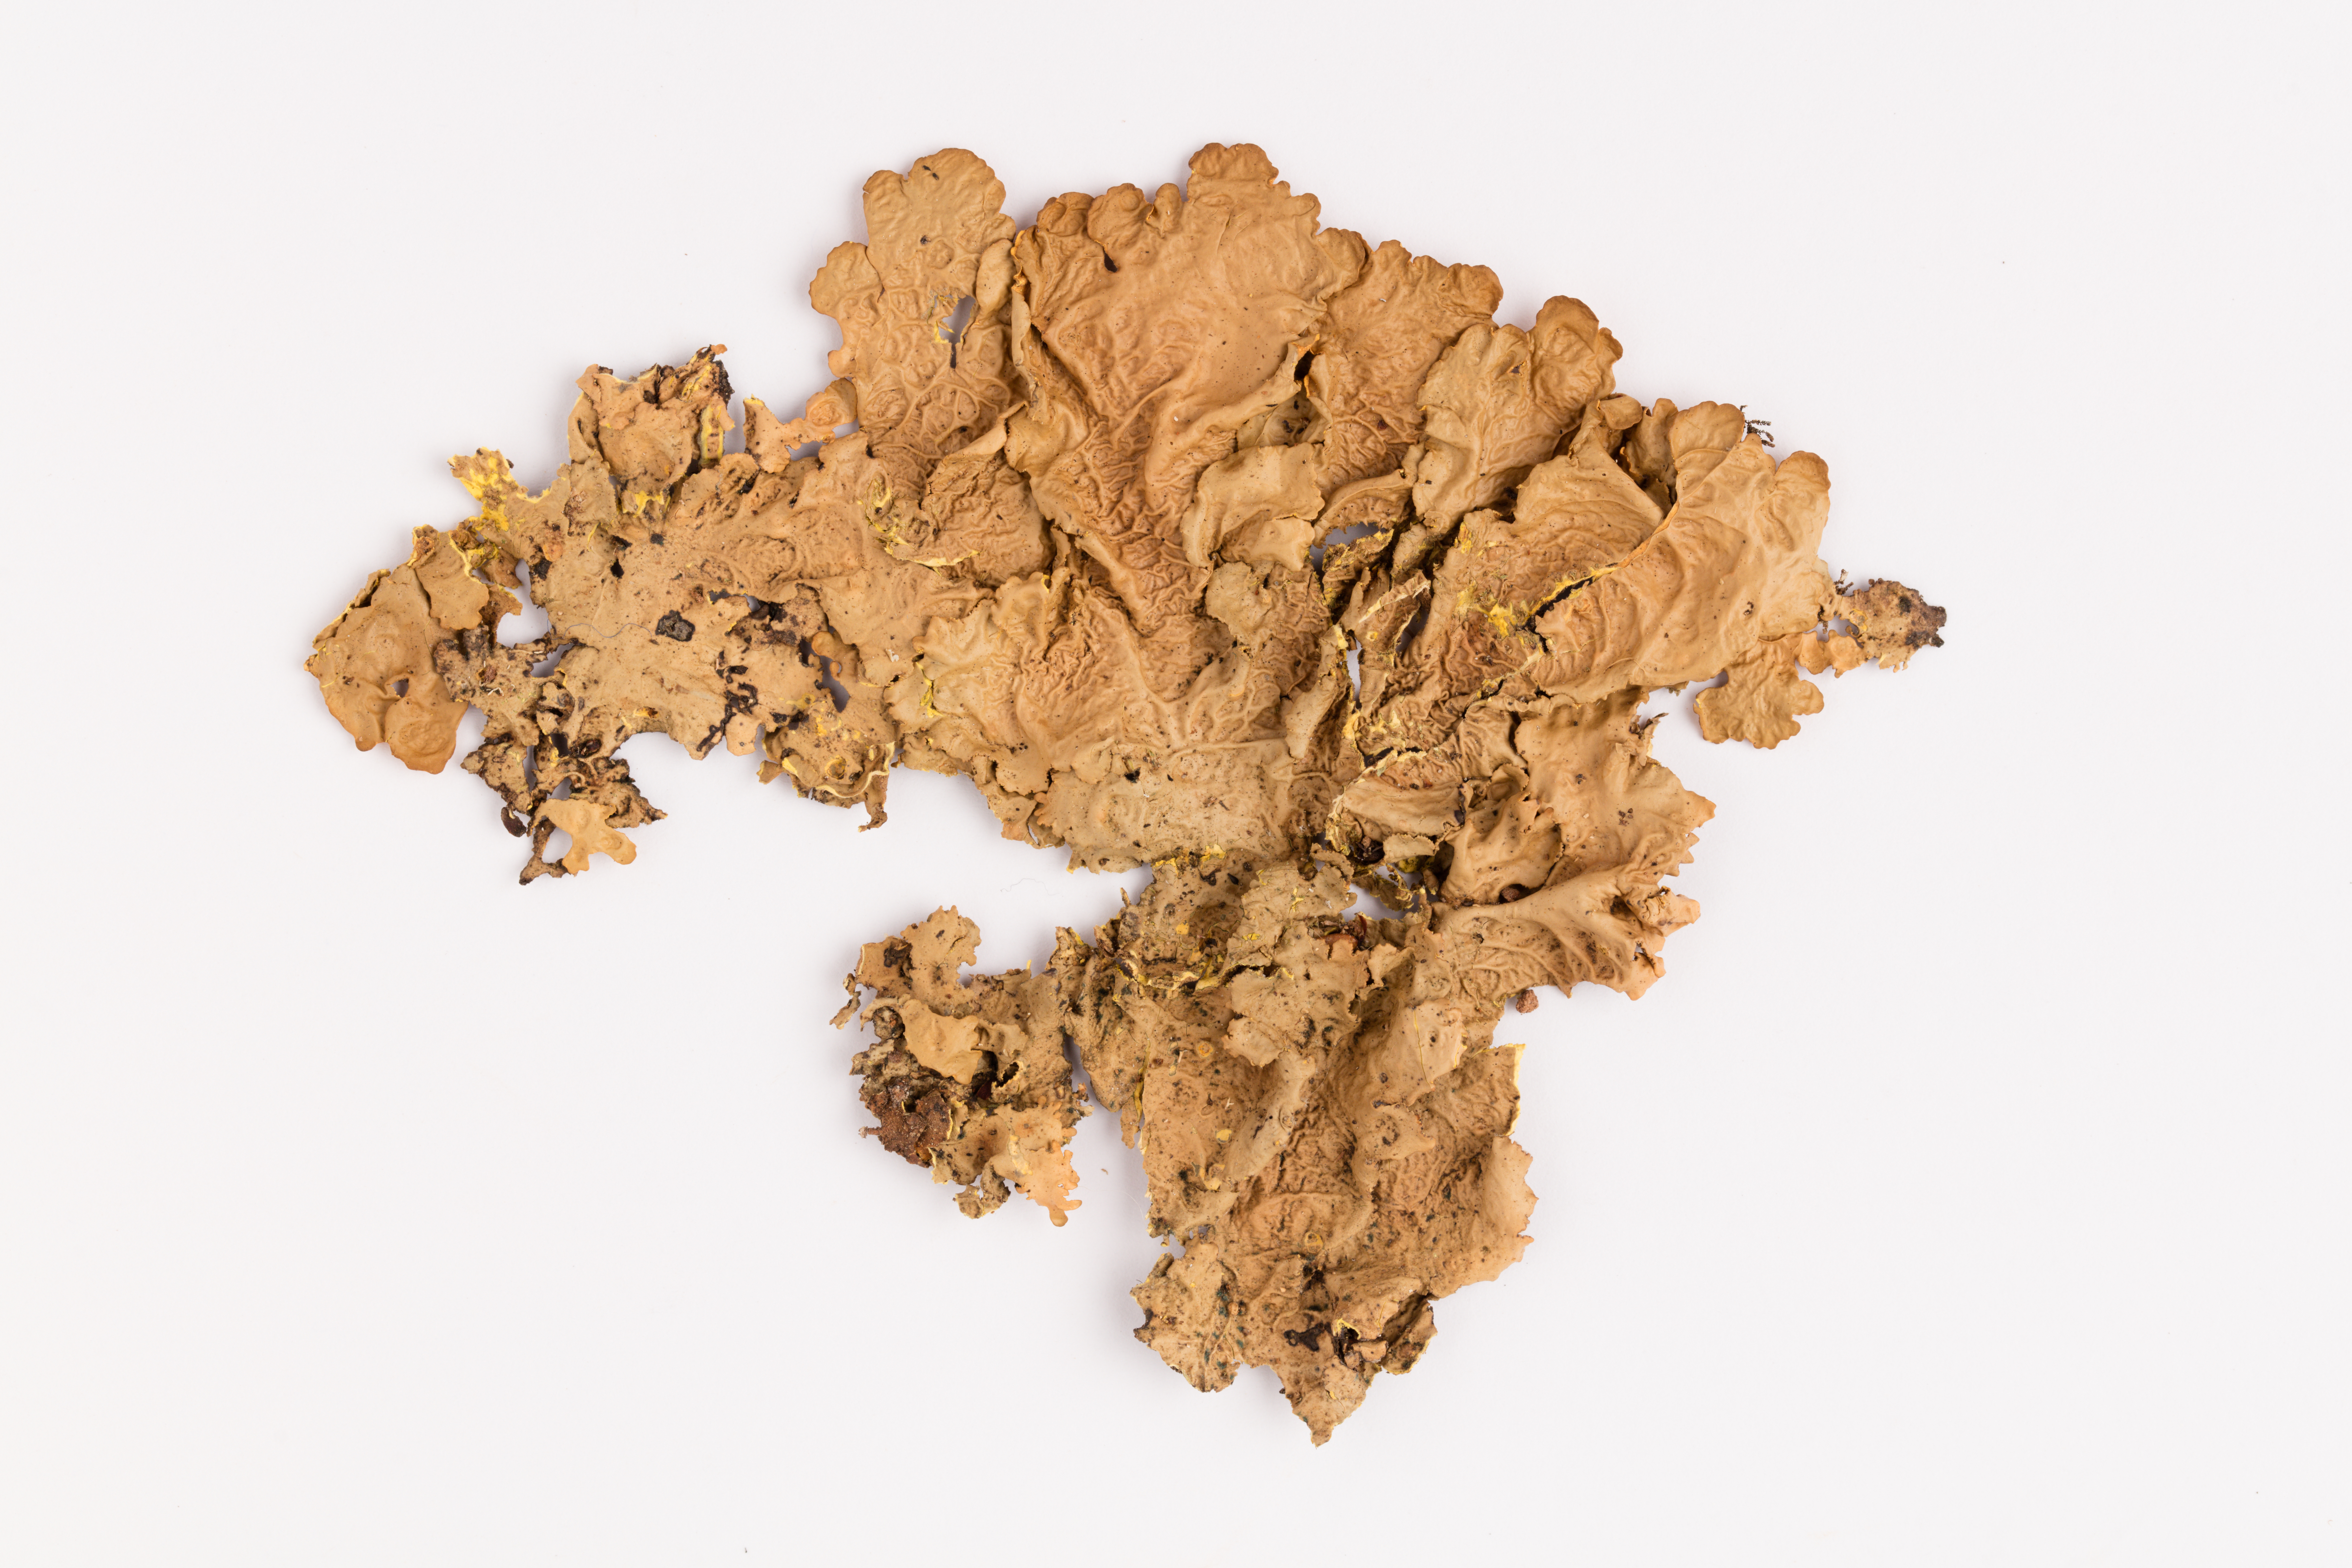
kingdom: Fungi
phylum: Ascomycota
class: Lecanoromycetes
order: Peltigerales
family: Lobariaceae
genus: Podostictina
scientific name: Podostictina degelii
